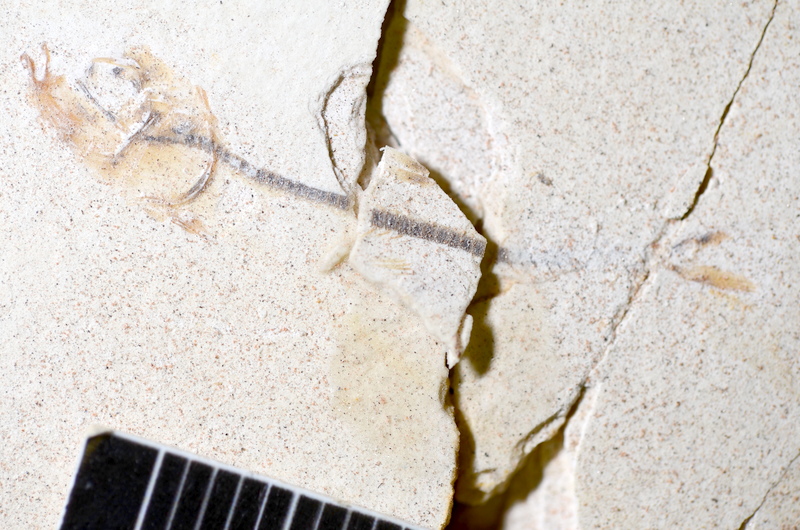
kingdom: Animalia
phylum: Chordata
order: Salmoniformes
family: Orthogonikleithridae
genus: Orthogonikleithrus
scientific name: Orthogonikleithrus hoelli
